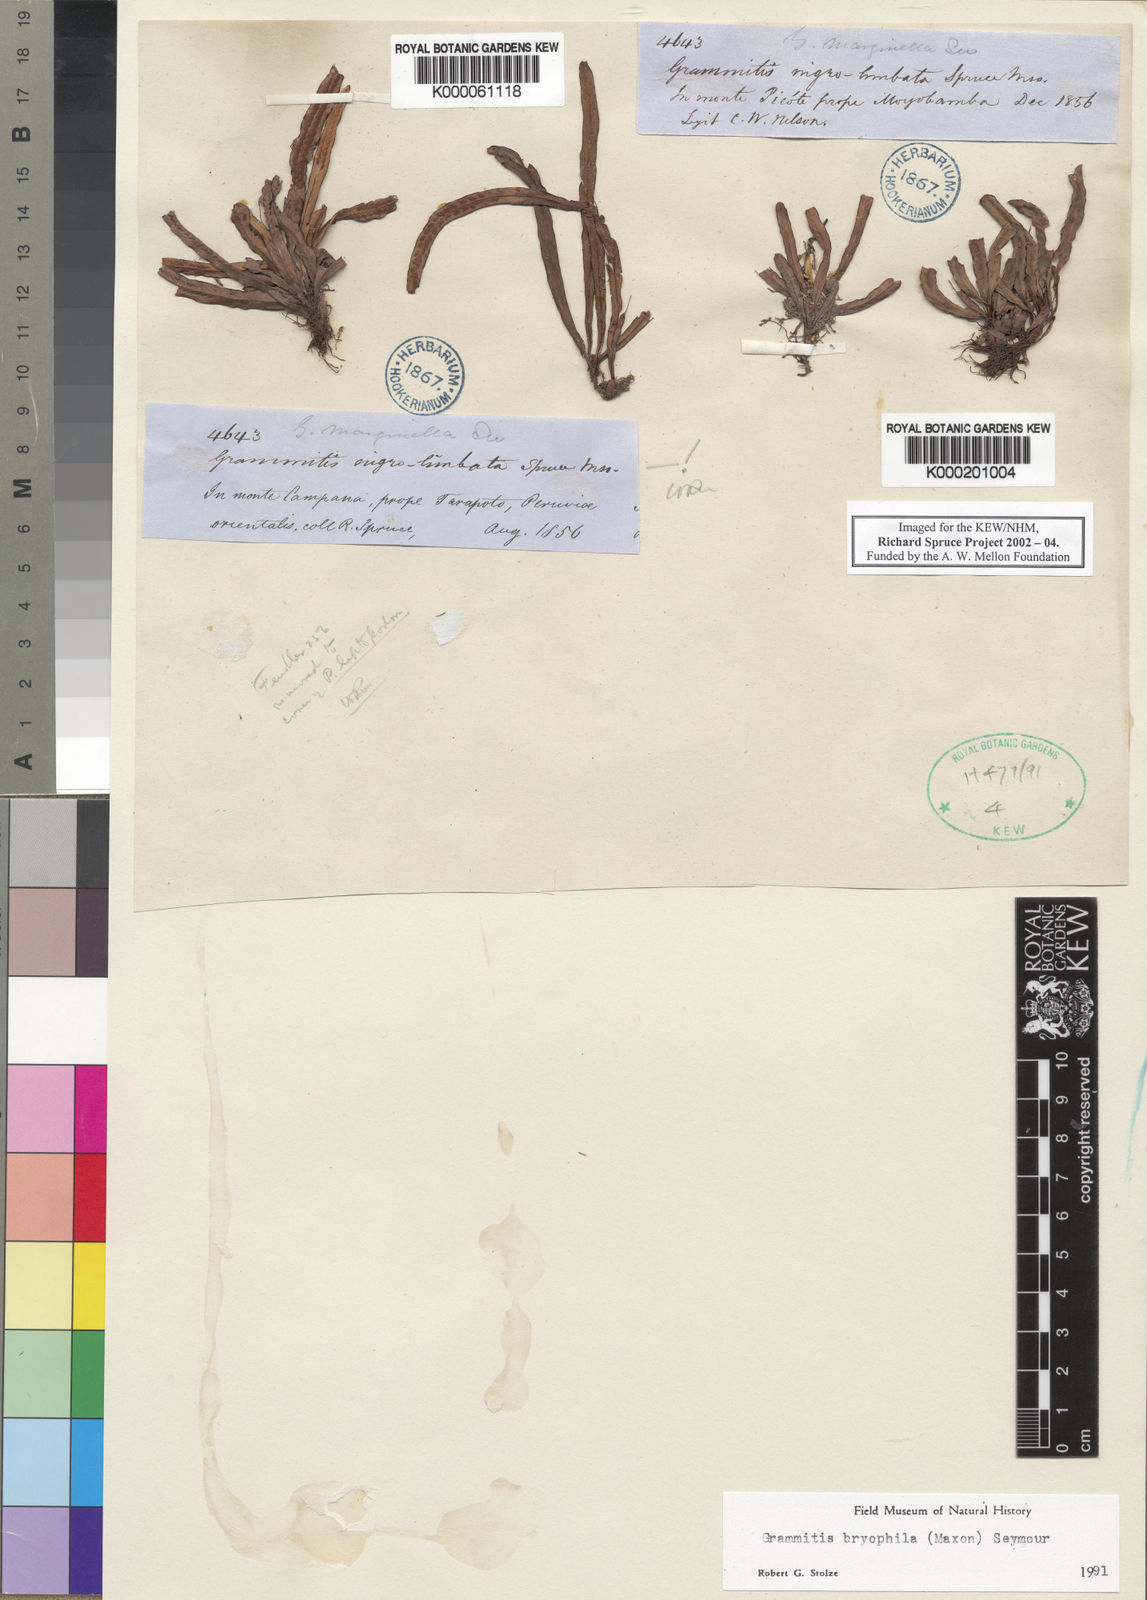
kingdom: Plantae
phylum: Tracheophyta
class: Polypodiopsida
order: Polypodiales
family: Polypodiaceae
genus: Grammitis
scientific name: Grammitis bryophila
